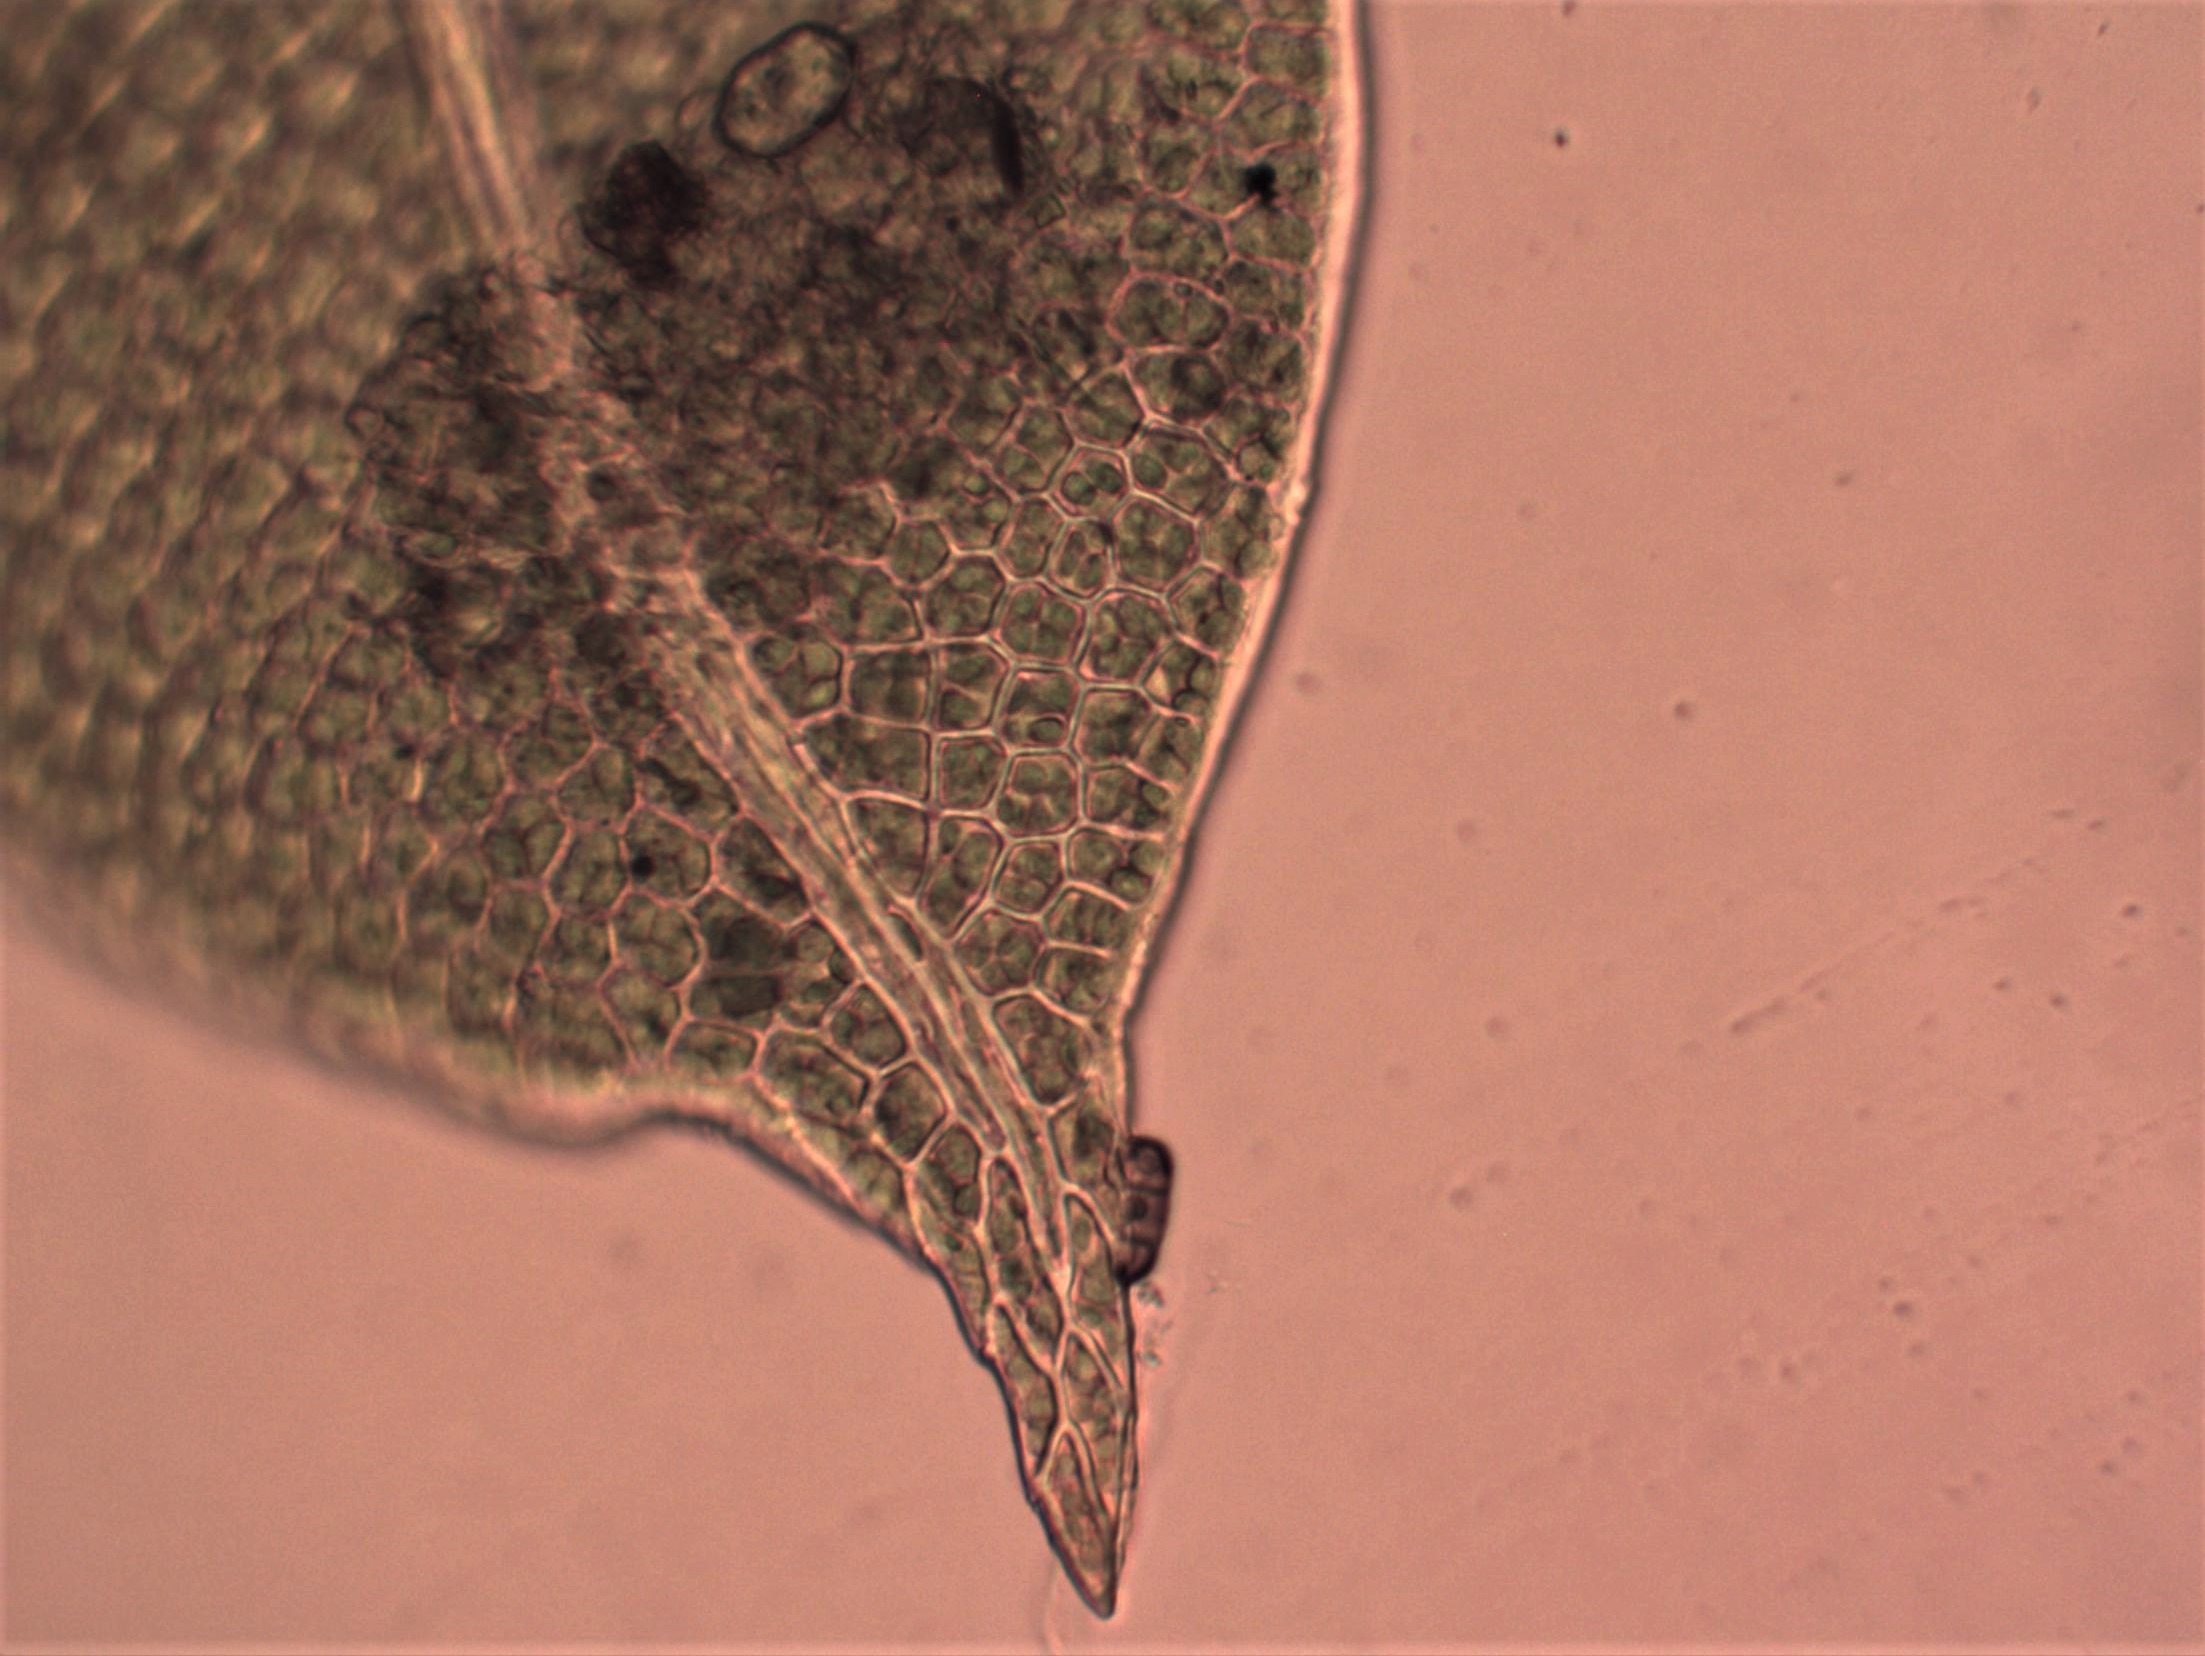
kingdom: Plantae
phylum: Bryophyta
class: Bryopsida
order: Dicranales
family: Fissidentaceae
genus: Fissidens
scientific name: Fissidens bryoides
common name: Top-rademos
